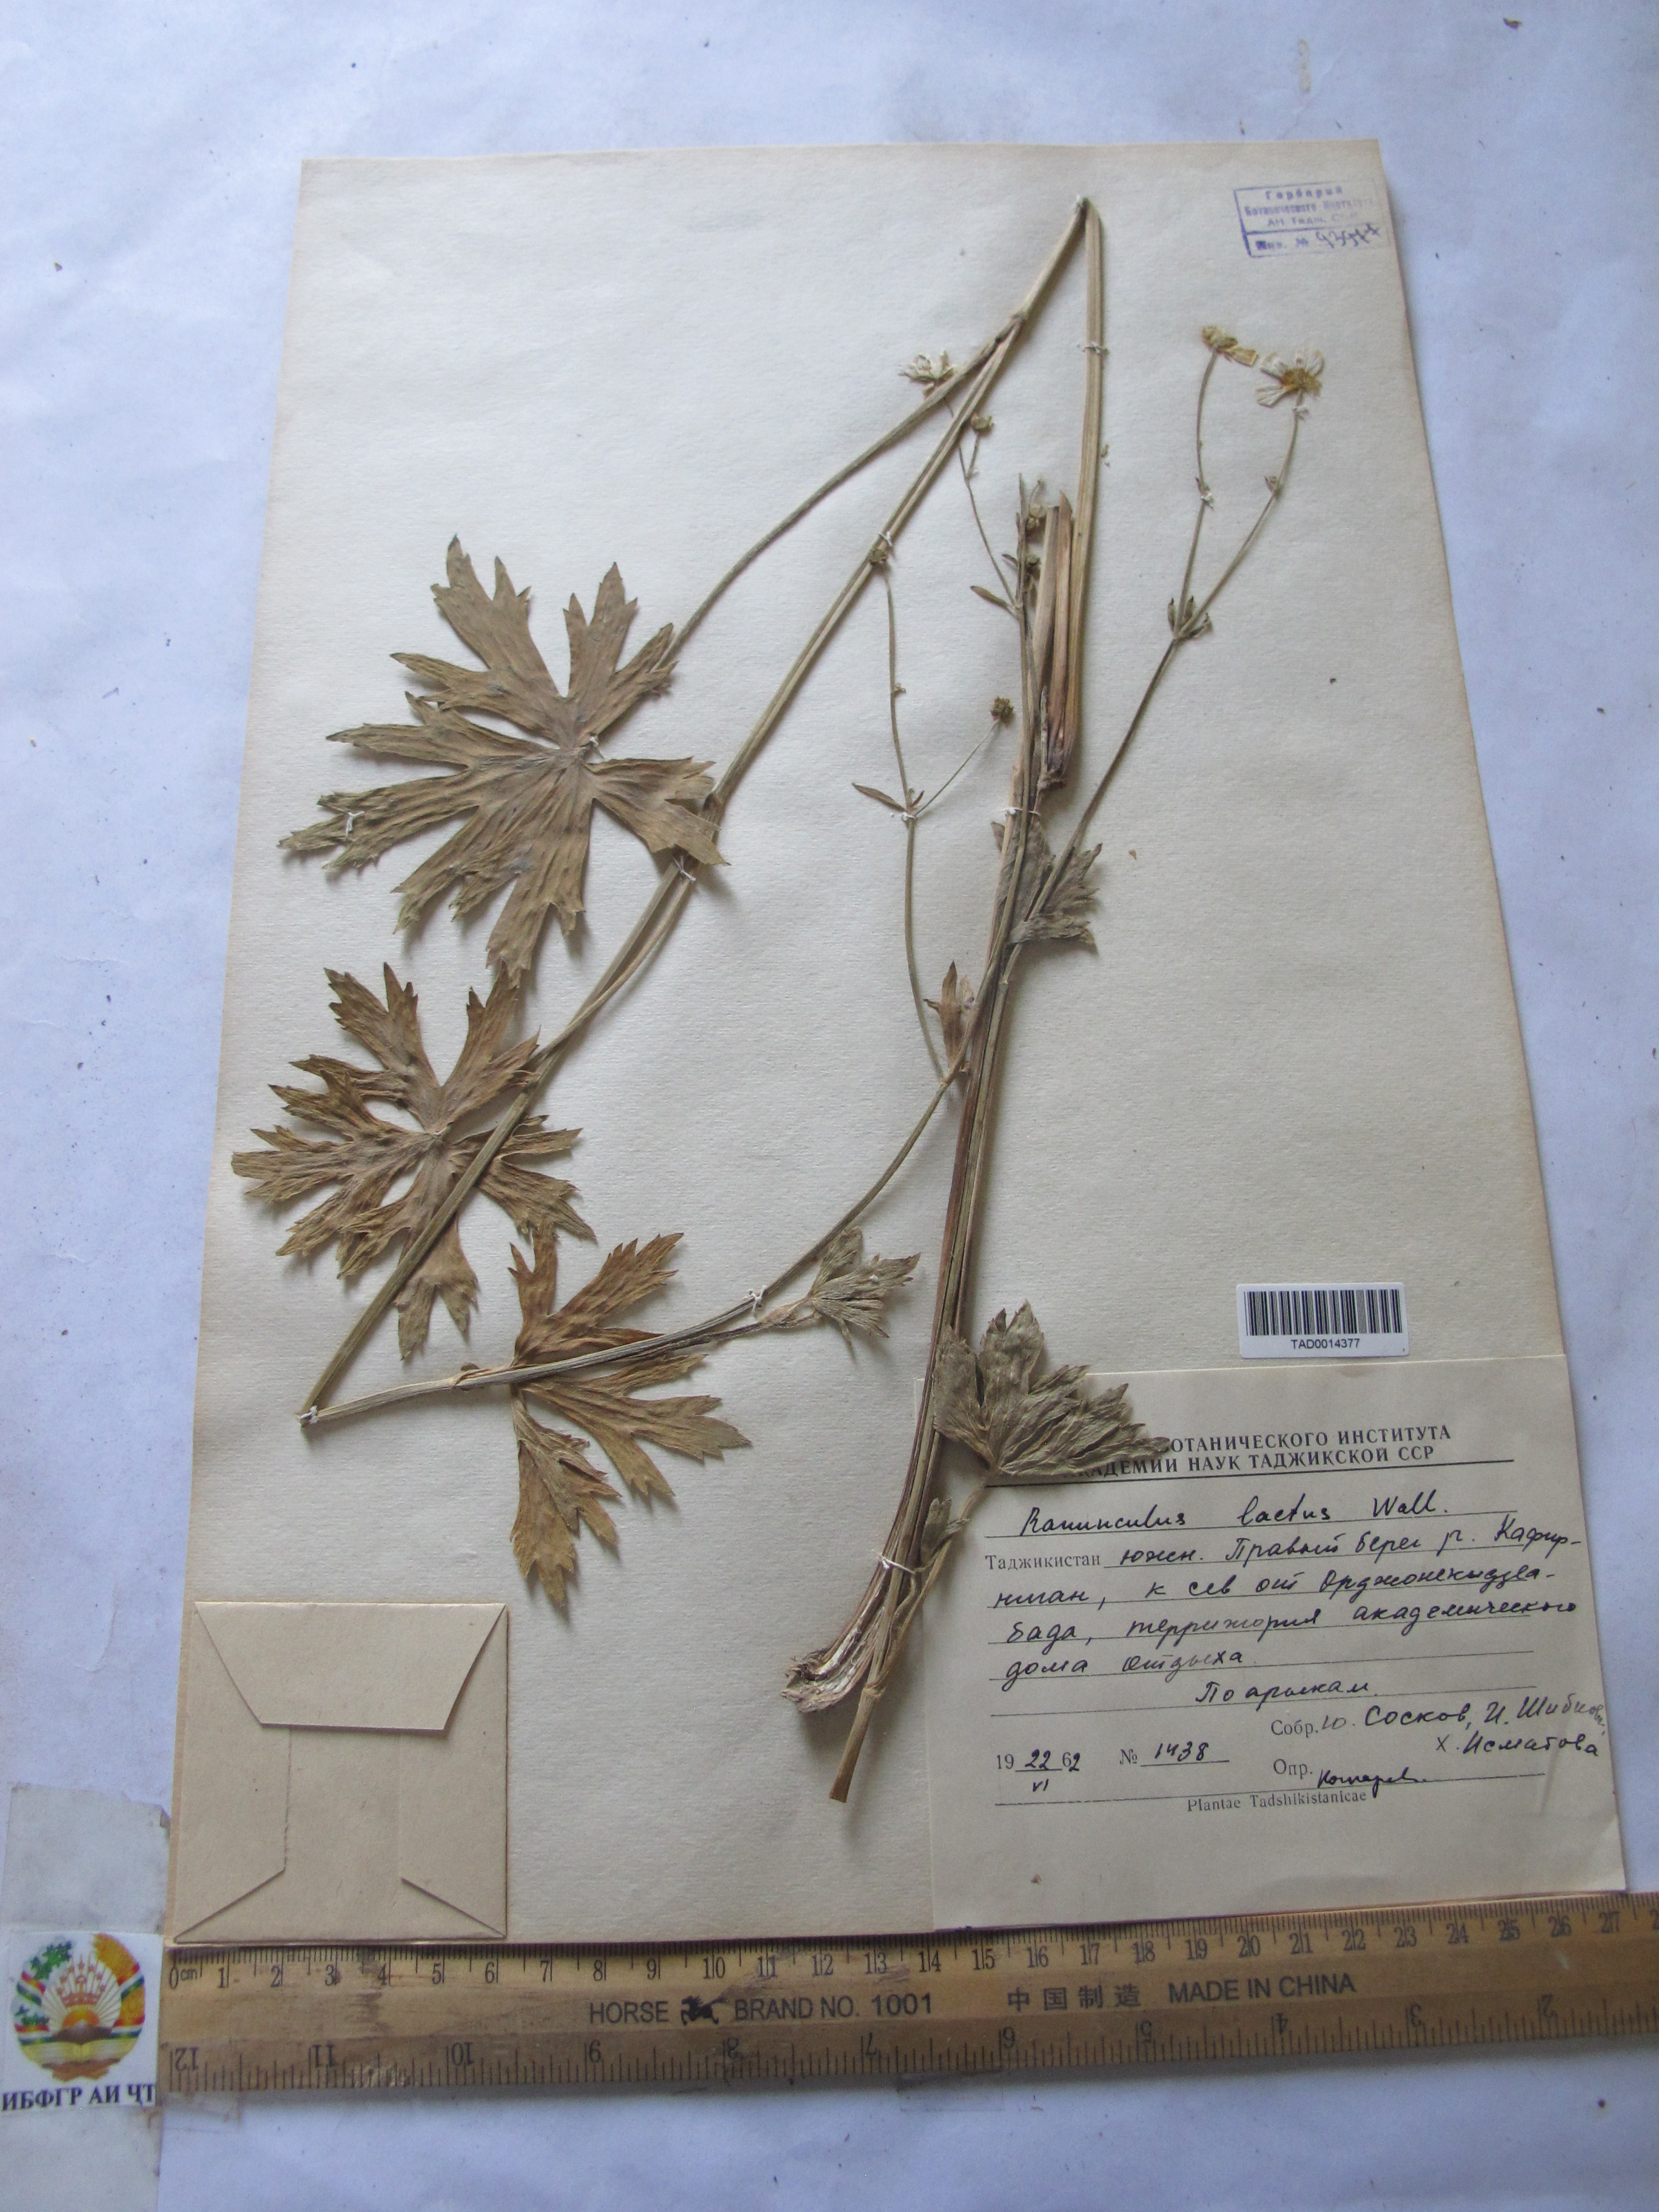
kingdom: Plantae
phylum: Tracheophyta
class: Magnoliopsida
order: Ranunculales
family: Ranunculaceae
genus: Ranunculus
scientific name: Ranunculus distans
